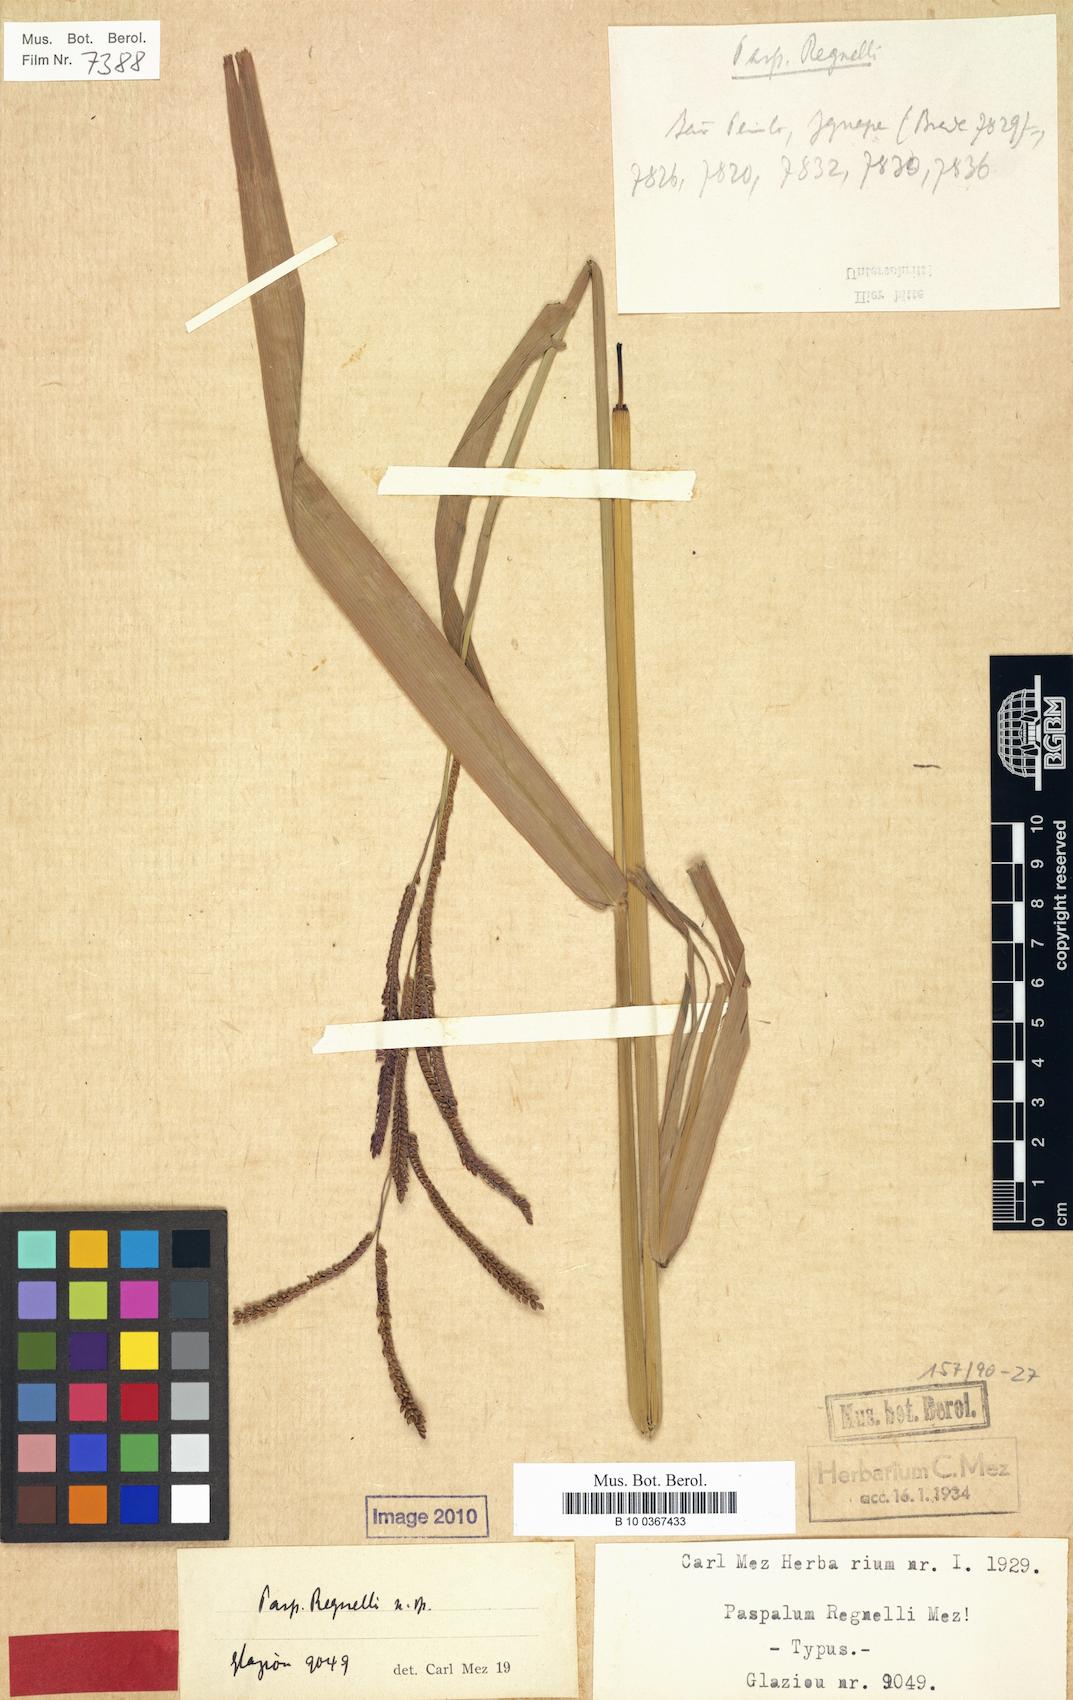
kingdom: Plantae
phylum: Tracheophyta
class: Liliopsida
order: Poales
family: Poaceae
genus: Paspalum
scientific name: Paspalum regnellii
